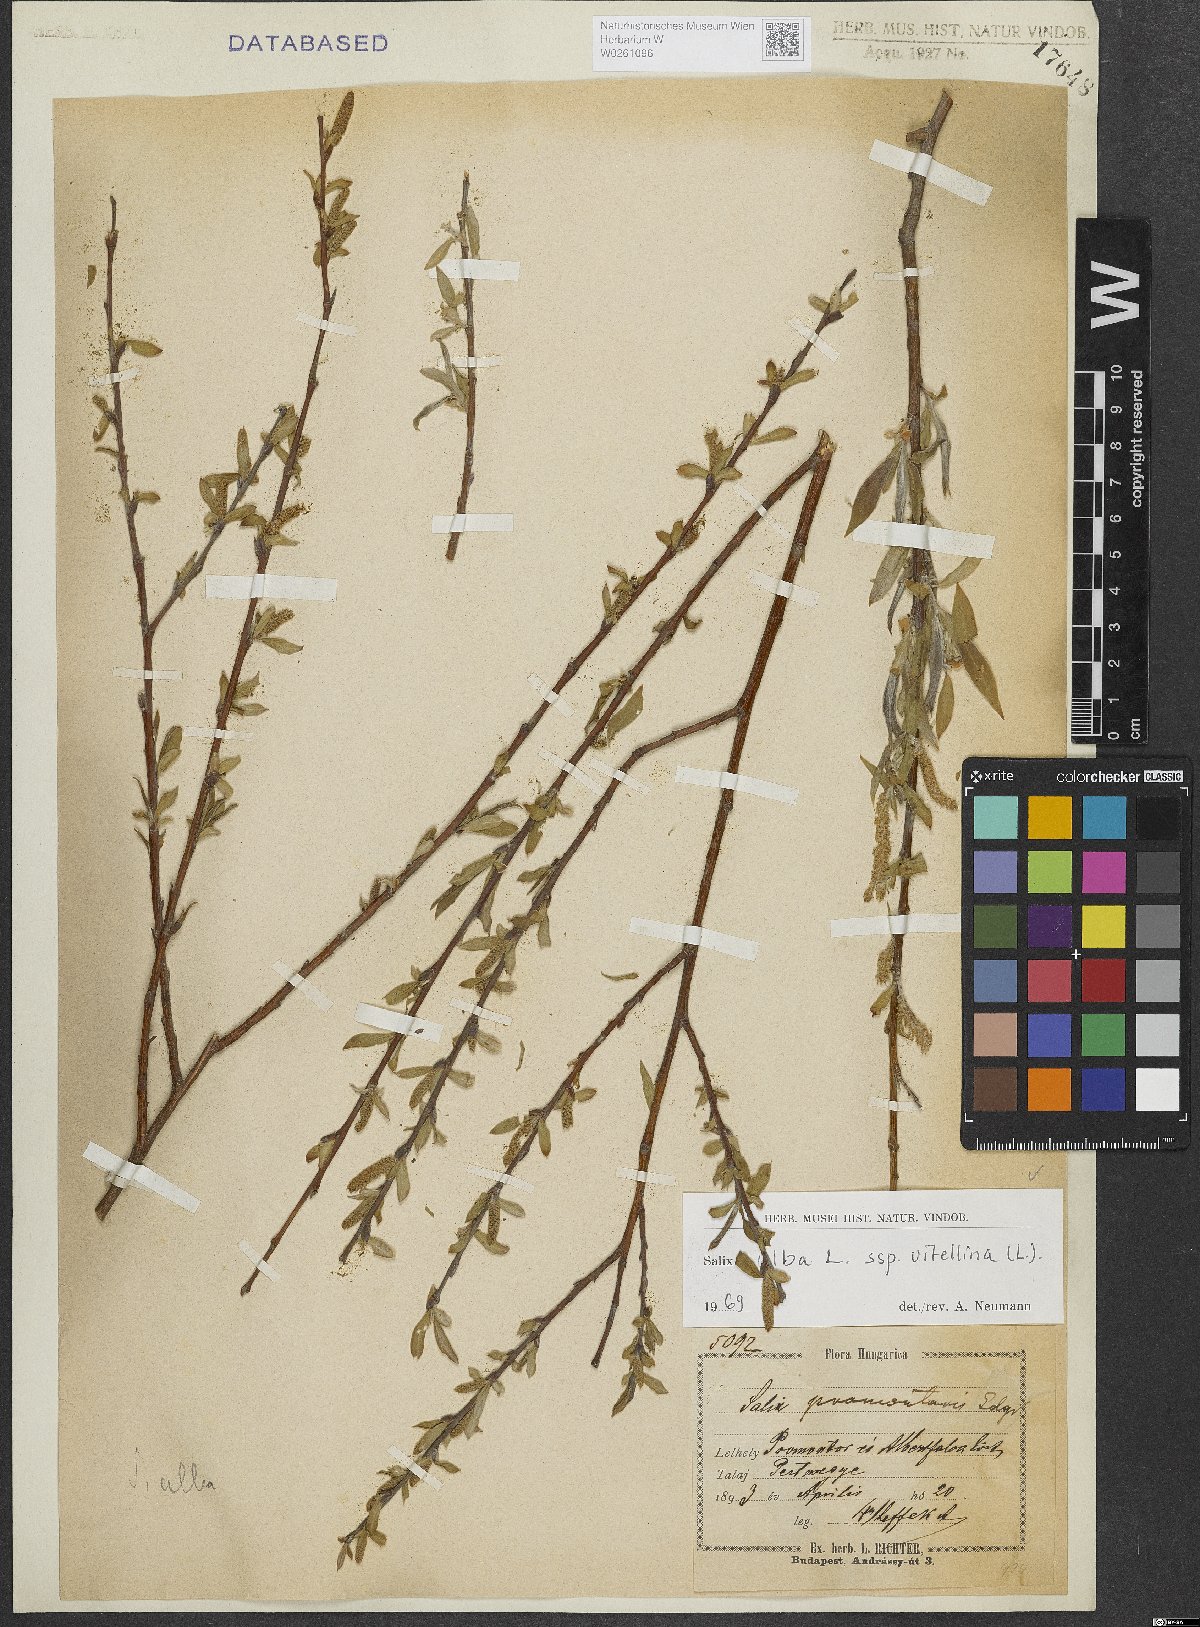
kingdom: Plantae
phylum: Tracheophyta
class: Magnoliopsida
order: Malpighiales
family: Salicaceae
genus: Salix
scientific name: Salix alba
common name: White willow
